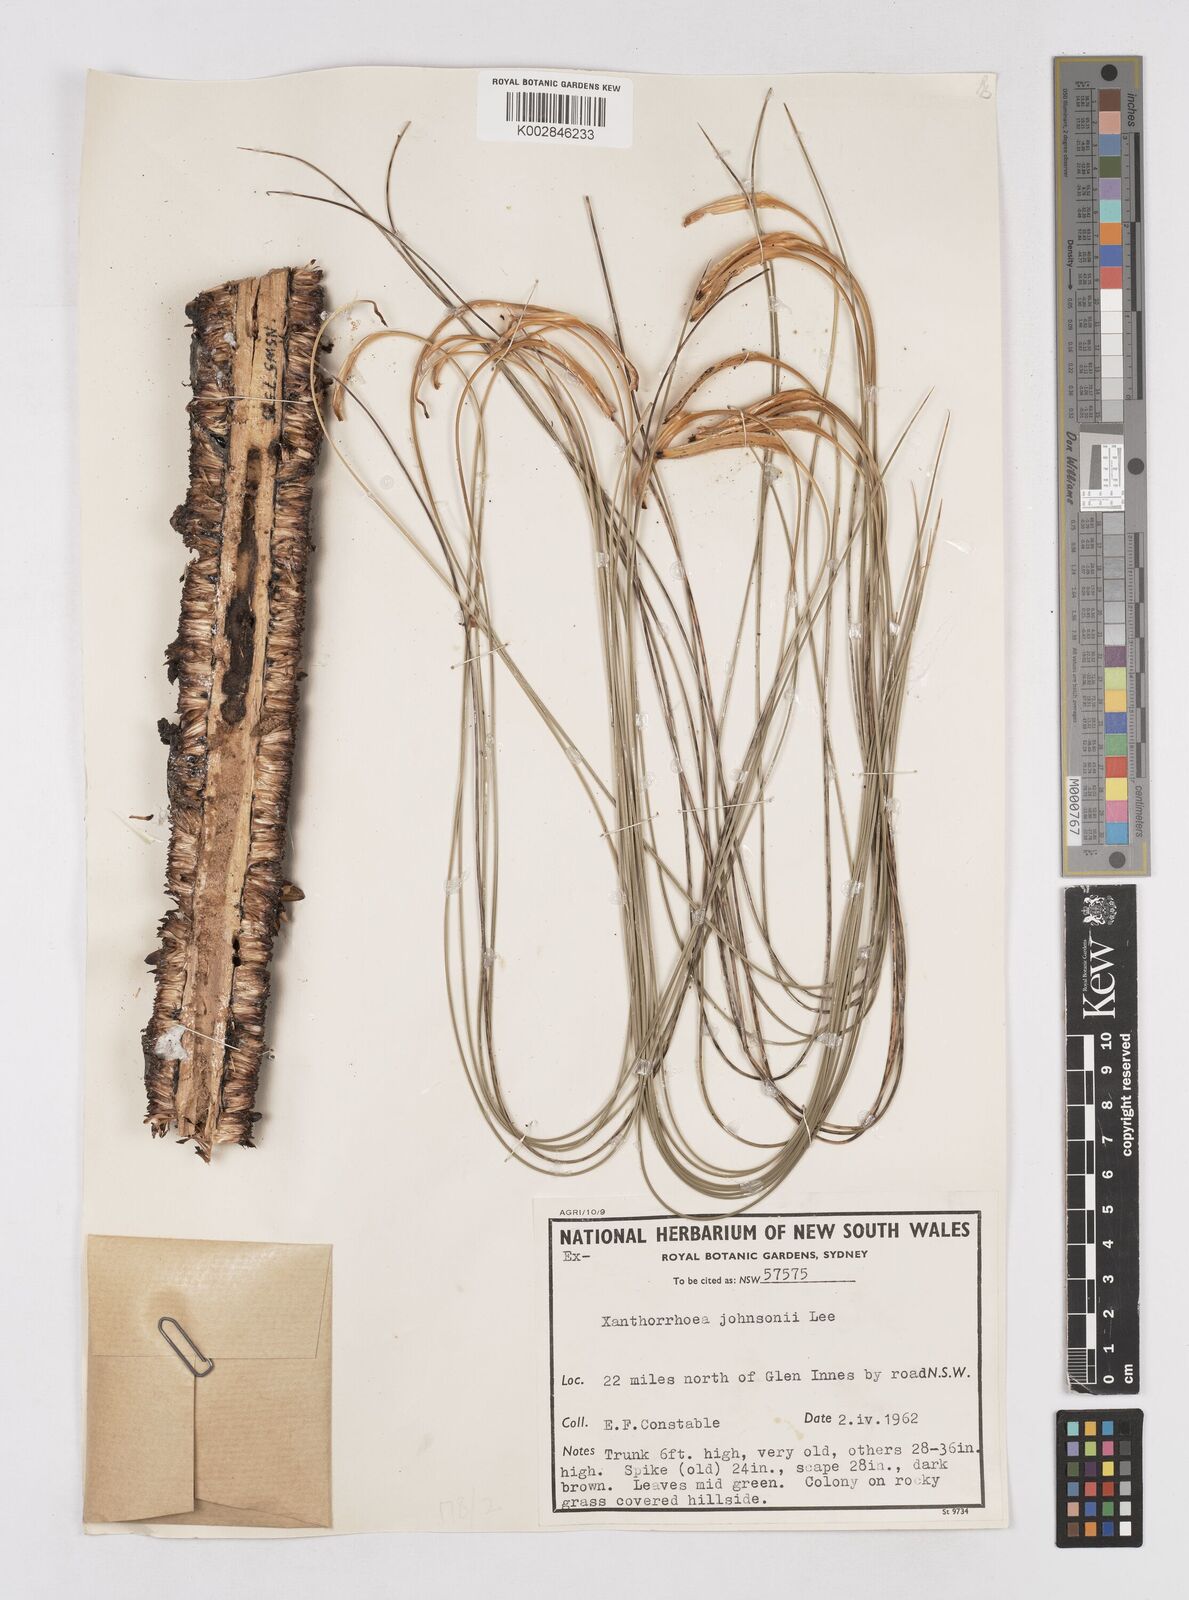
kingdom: Plantae
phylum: Tracheophyta
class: Liliopsida
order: Asparagales
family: Asphodelaceae
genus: Xanthorrhoea
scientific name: Xanthorrhoea johnsonii
